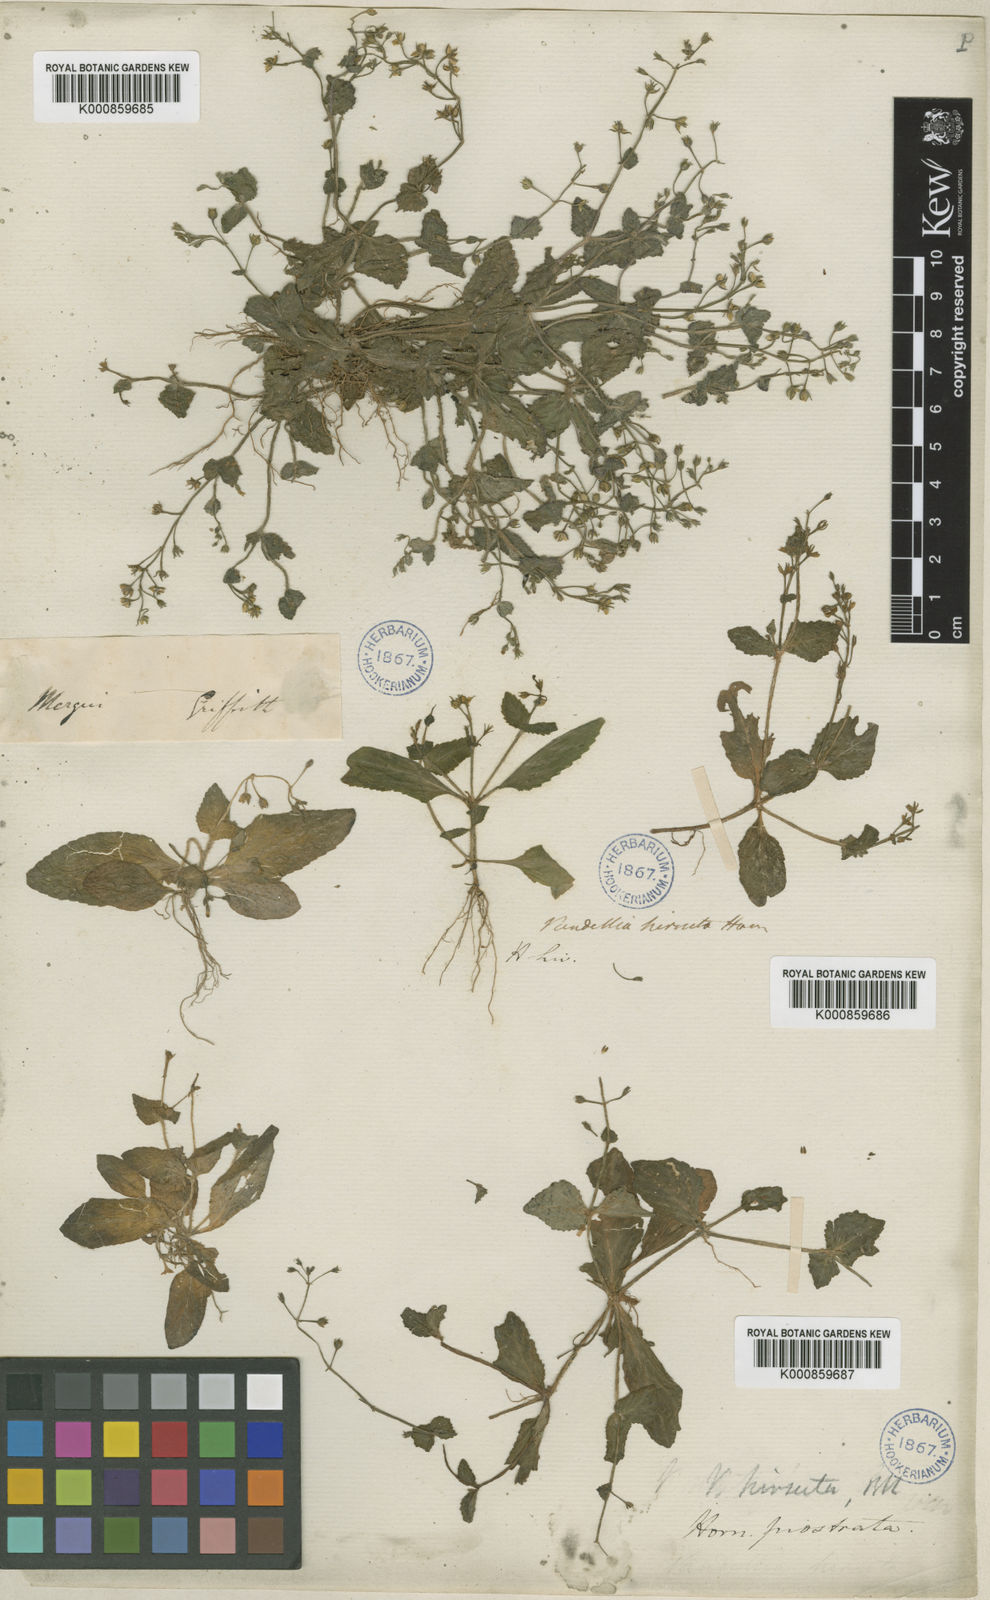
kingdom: Plantae
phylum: Tracheophyta
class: Magnoliopsida
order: Lamiales
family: Linderniaceae
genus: Lindernia
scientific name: Lindernia
